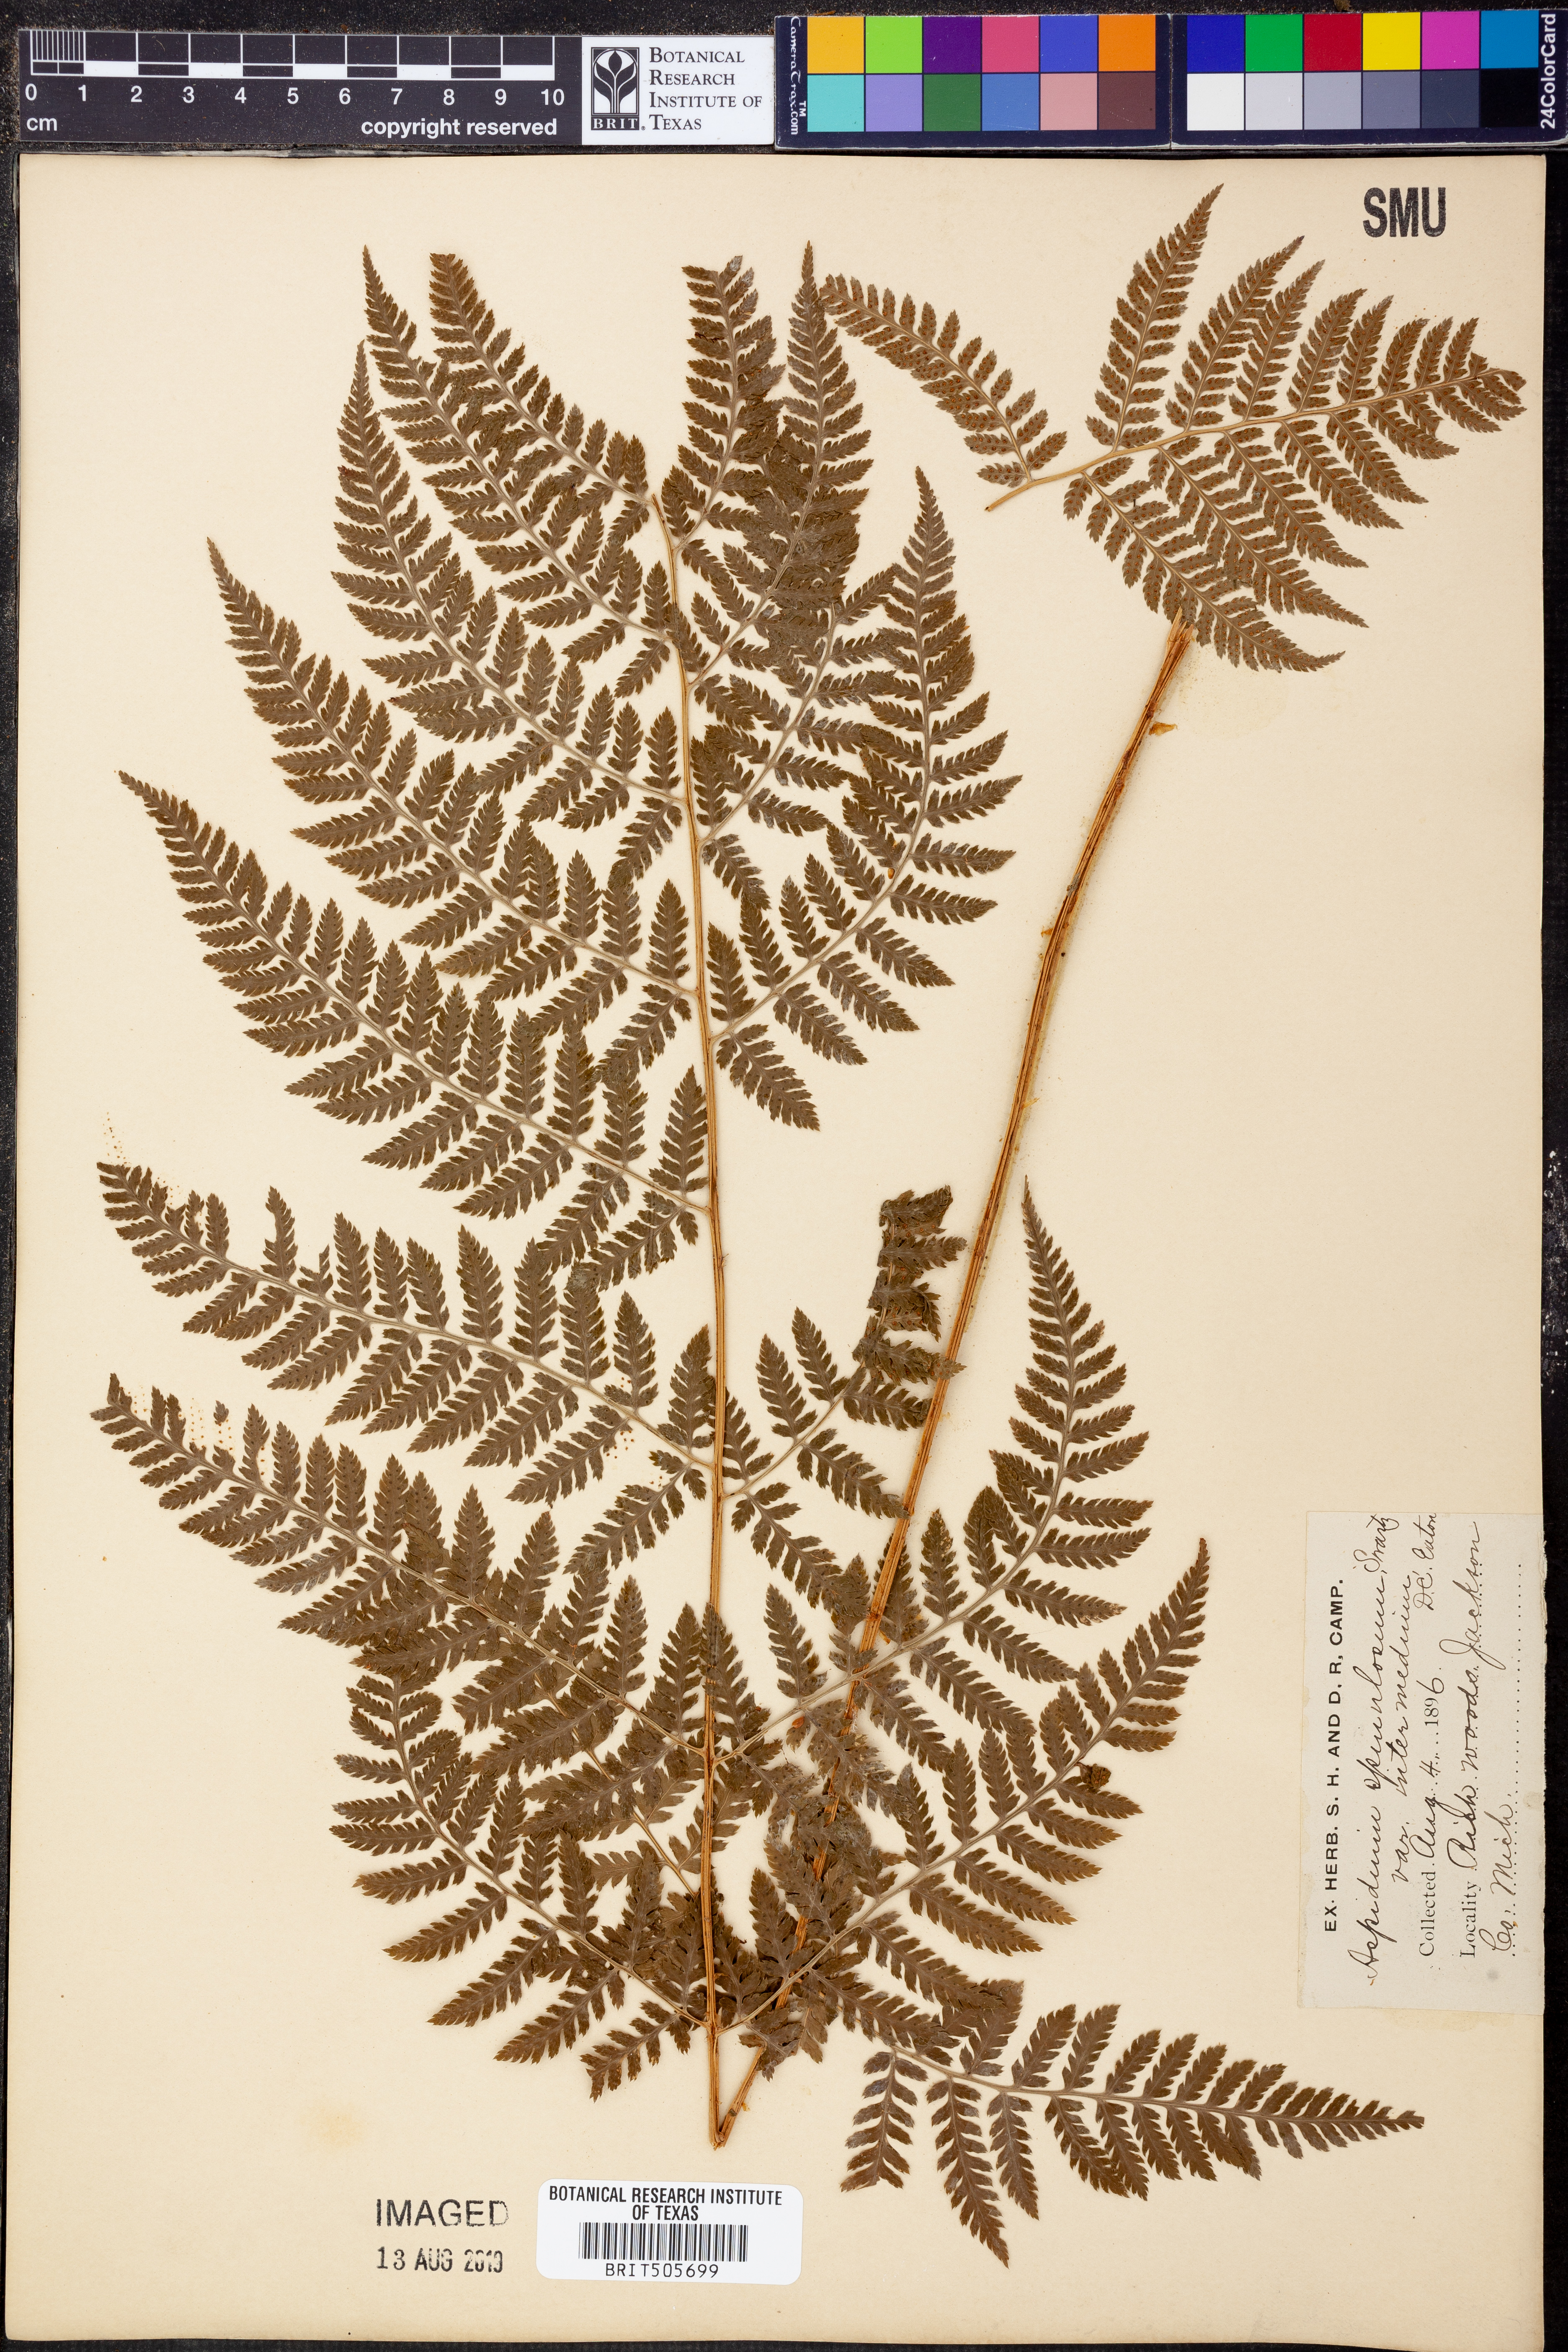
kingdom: Plantae
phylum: Tracheophyta
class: Polypodiopsida
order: Polypodiales
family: Dryopteridaceae
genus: Dryopteris
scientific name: Dryopteris intermedia
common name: Evergreen wood fern
